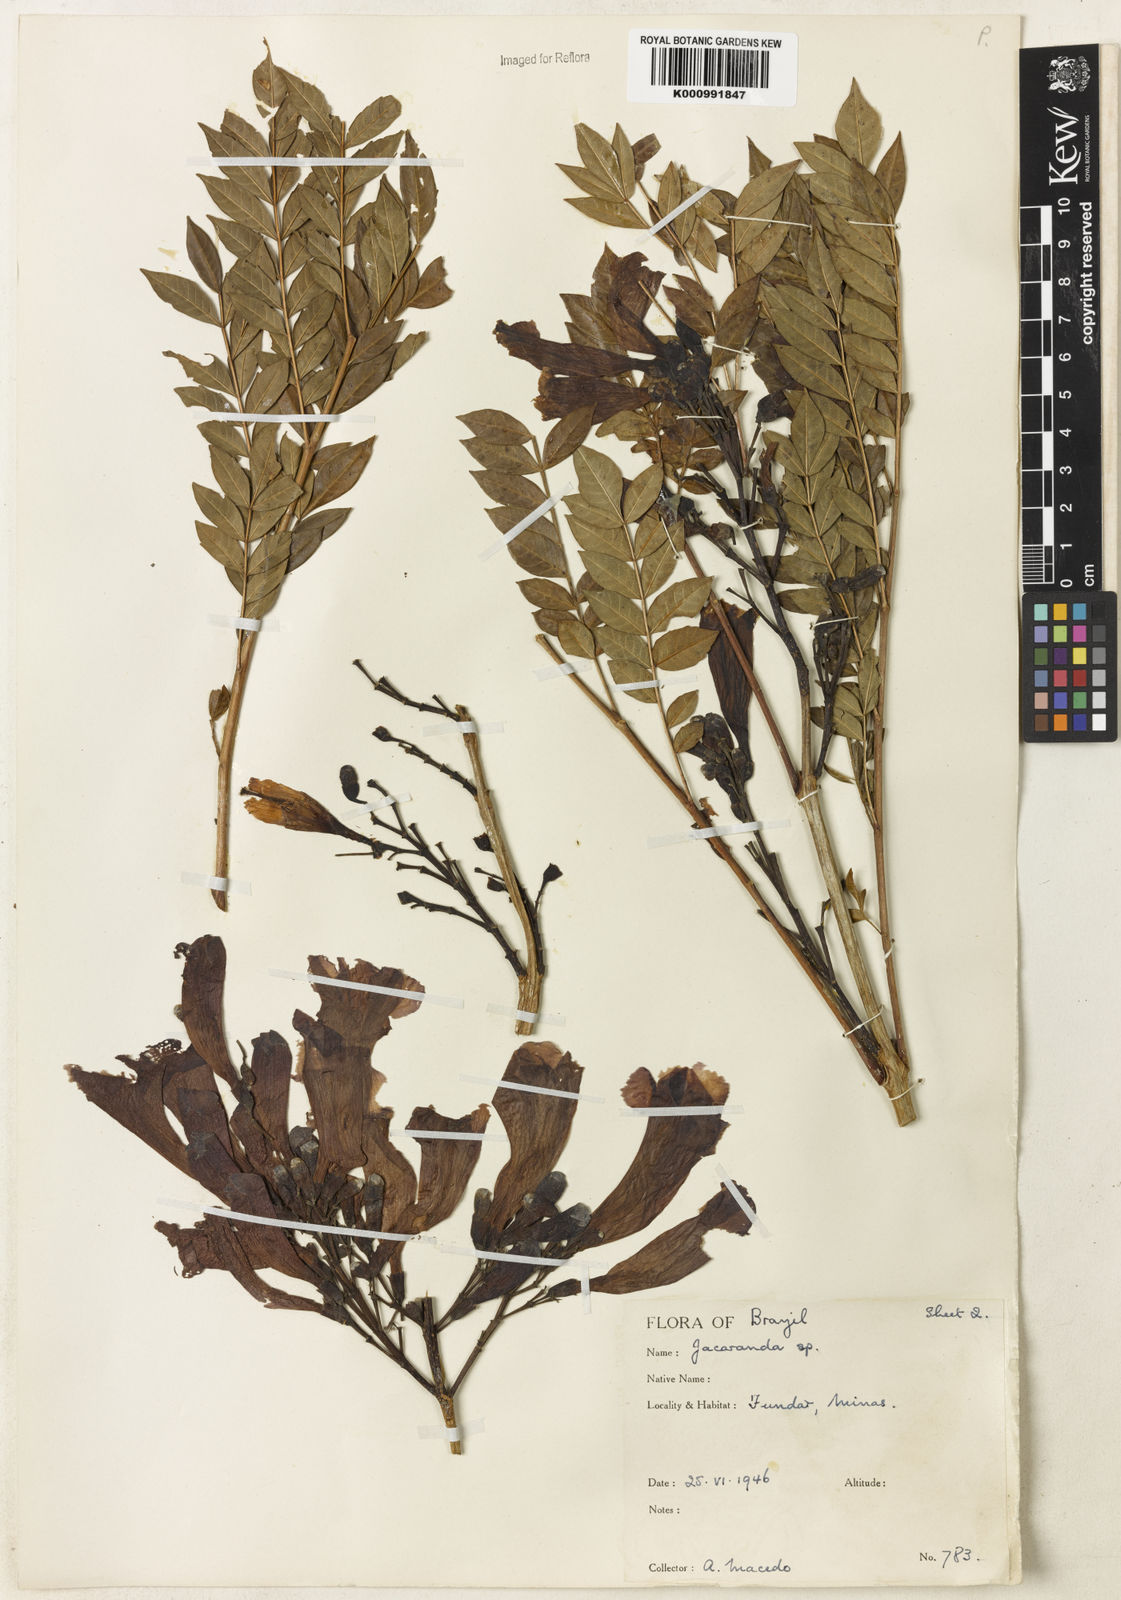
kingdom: Plantae
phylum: Tracheophyta
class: Magnoliopsida
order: Lamiales
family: Bignoniaceae
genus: Jacaranda
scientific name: Jacaranda mutabilis
